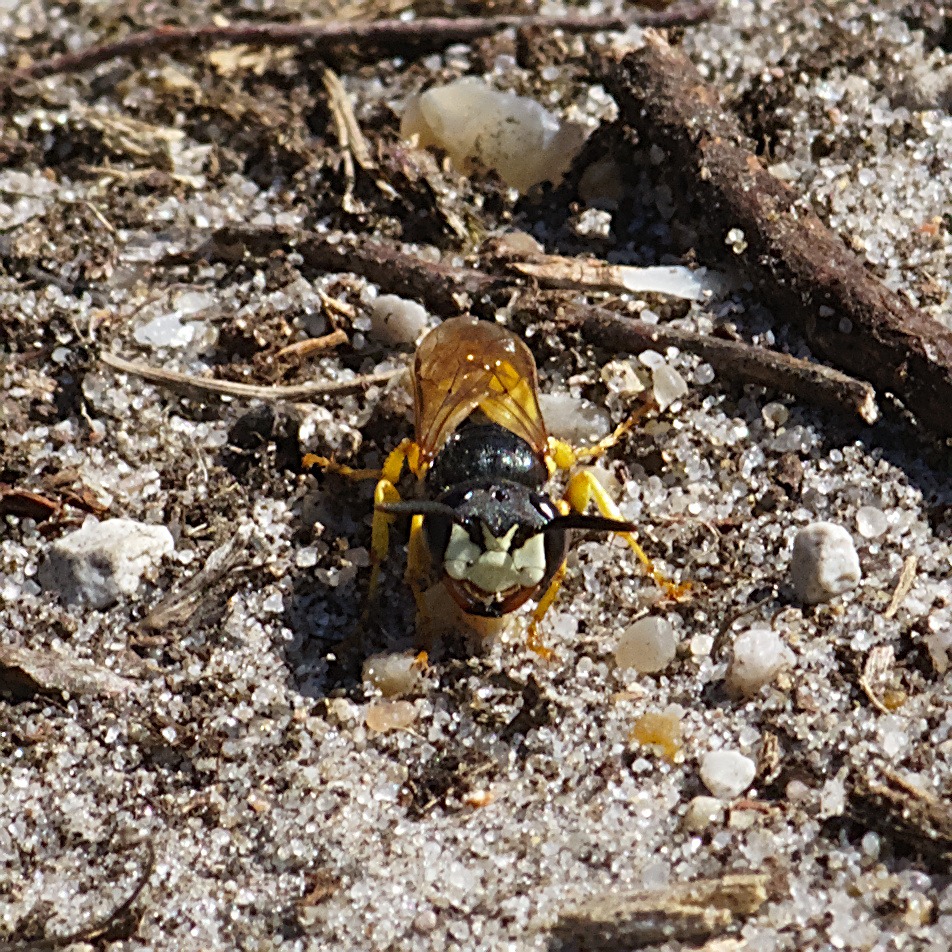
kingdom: Animalia
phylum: Arthropoda
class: Insecta
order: Hymenoptera
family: Crabronidae
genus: Philanthus
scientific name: Philanthus triangulum
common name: Biulv
